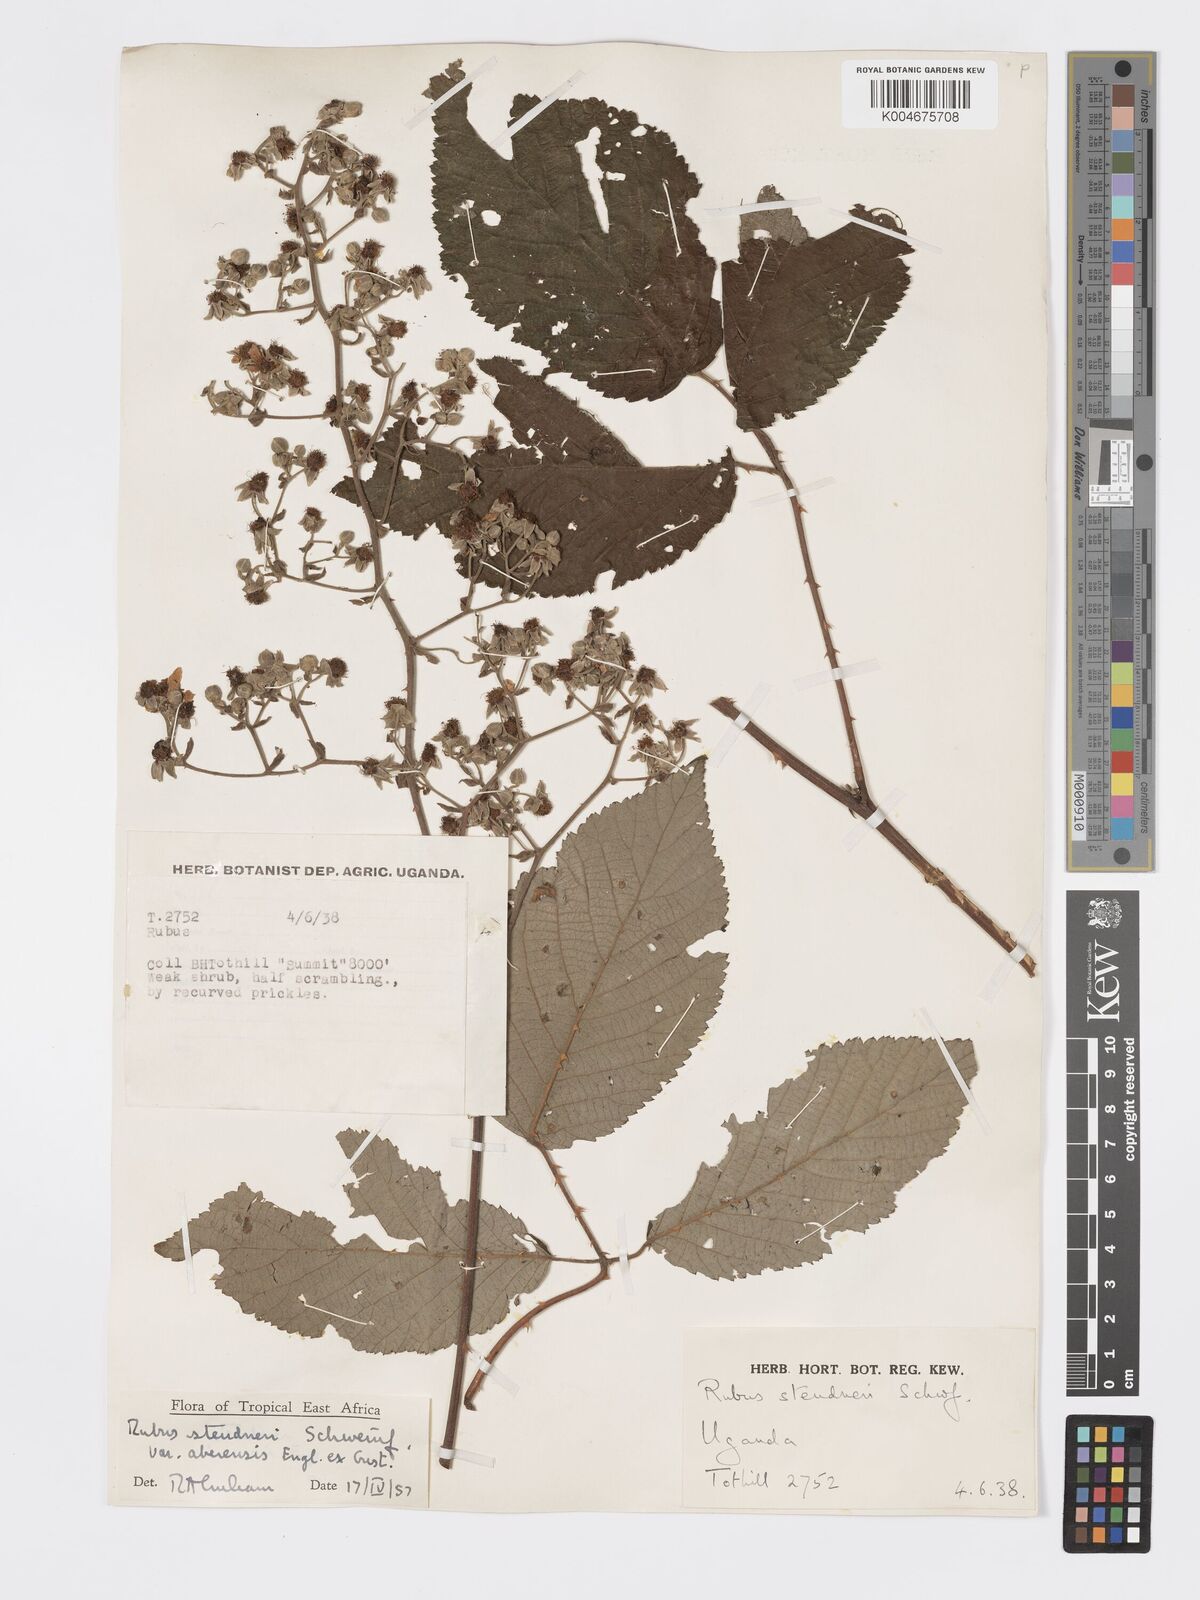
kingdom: Plantae
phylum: Tracheophyta
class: Magnoliopsida
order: Rosales
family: Rosaceae
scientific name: Rosaceae
